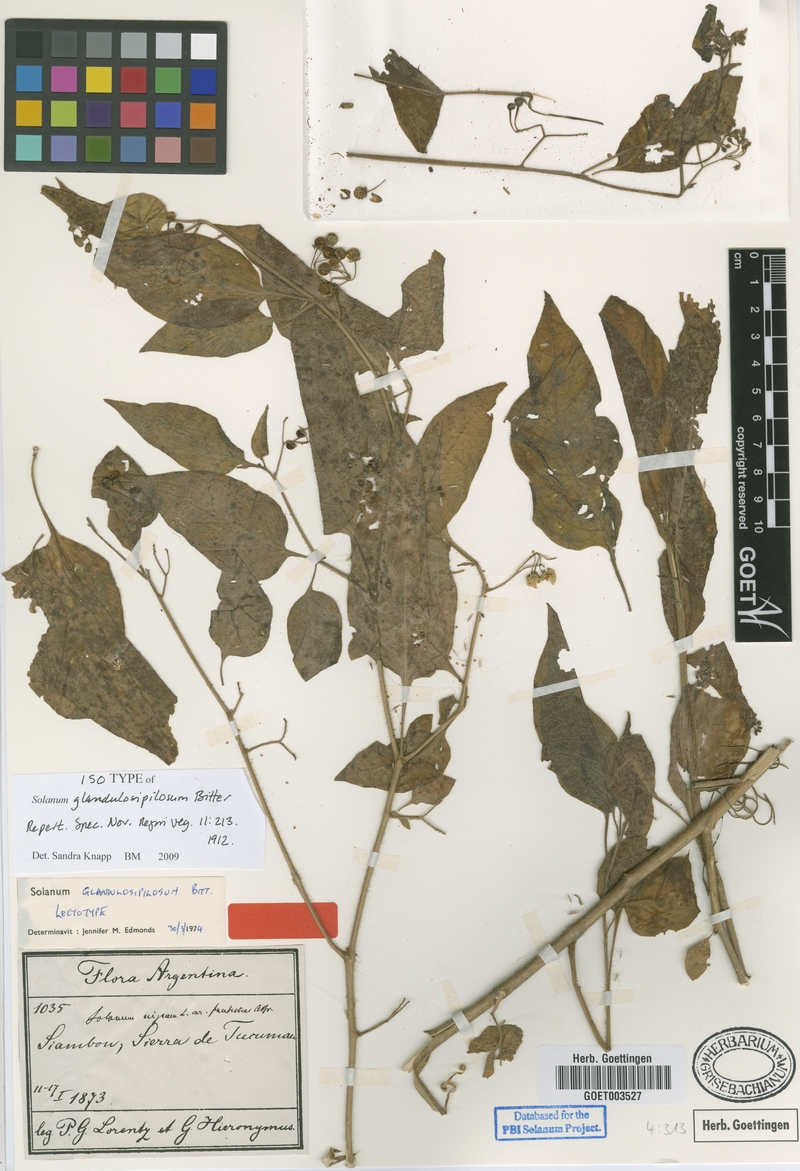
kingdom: Plantae
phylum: Tracheophyta
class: Magnoliopsida
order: Solanales
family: Solanaceae
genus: Solanum
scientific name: Solanum glandulosipilosum
